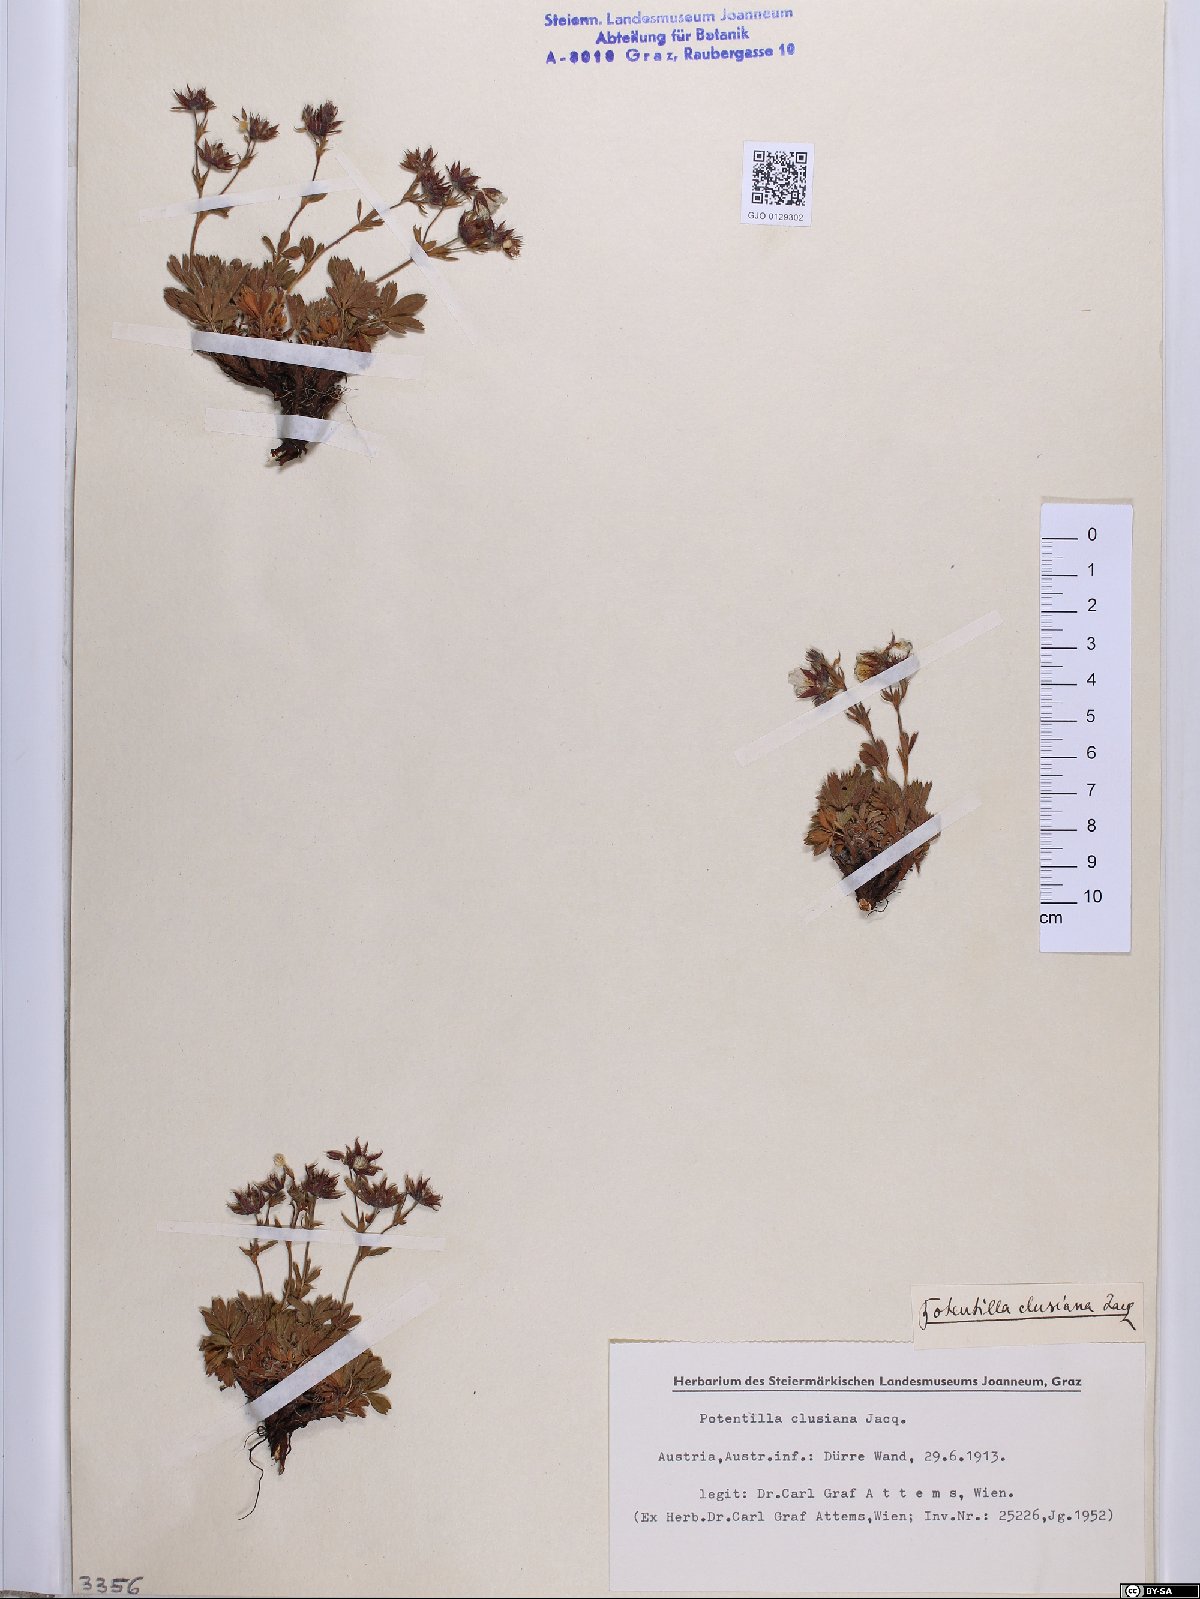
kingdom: Plantae
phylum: Tracheophyta
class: Magnoliopsida
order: Rosales
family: Rosaceae
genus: Potentilla
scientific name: Potentilla clusiana
